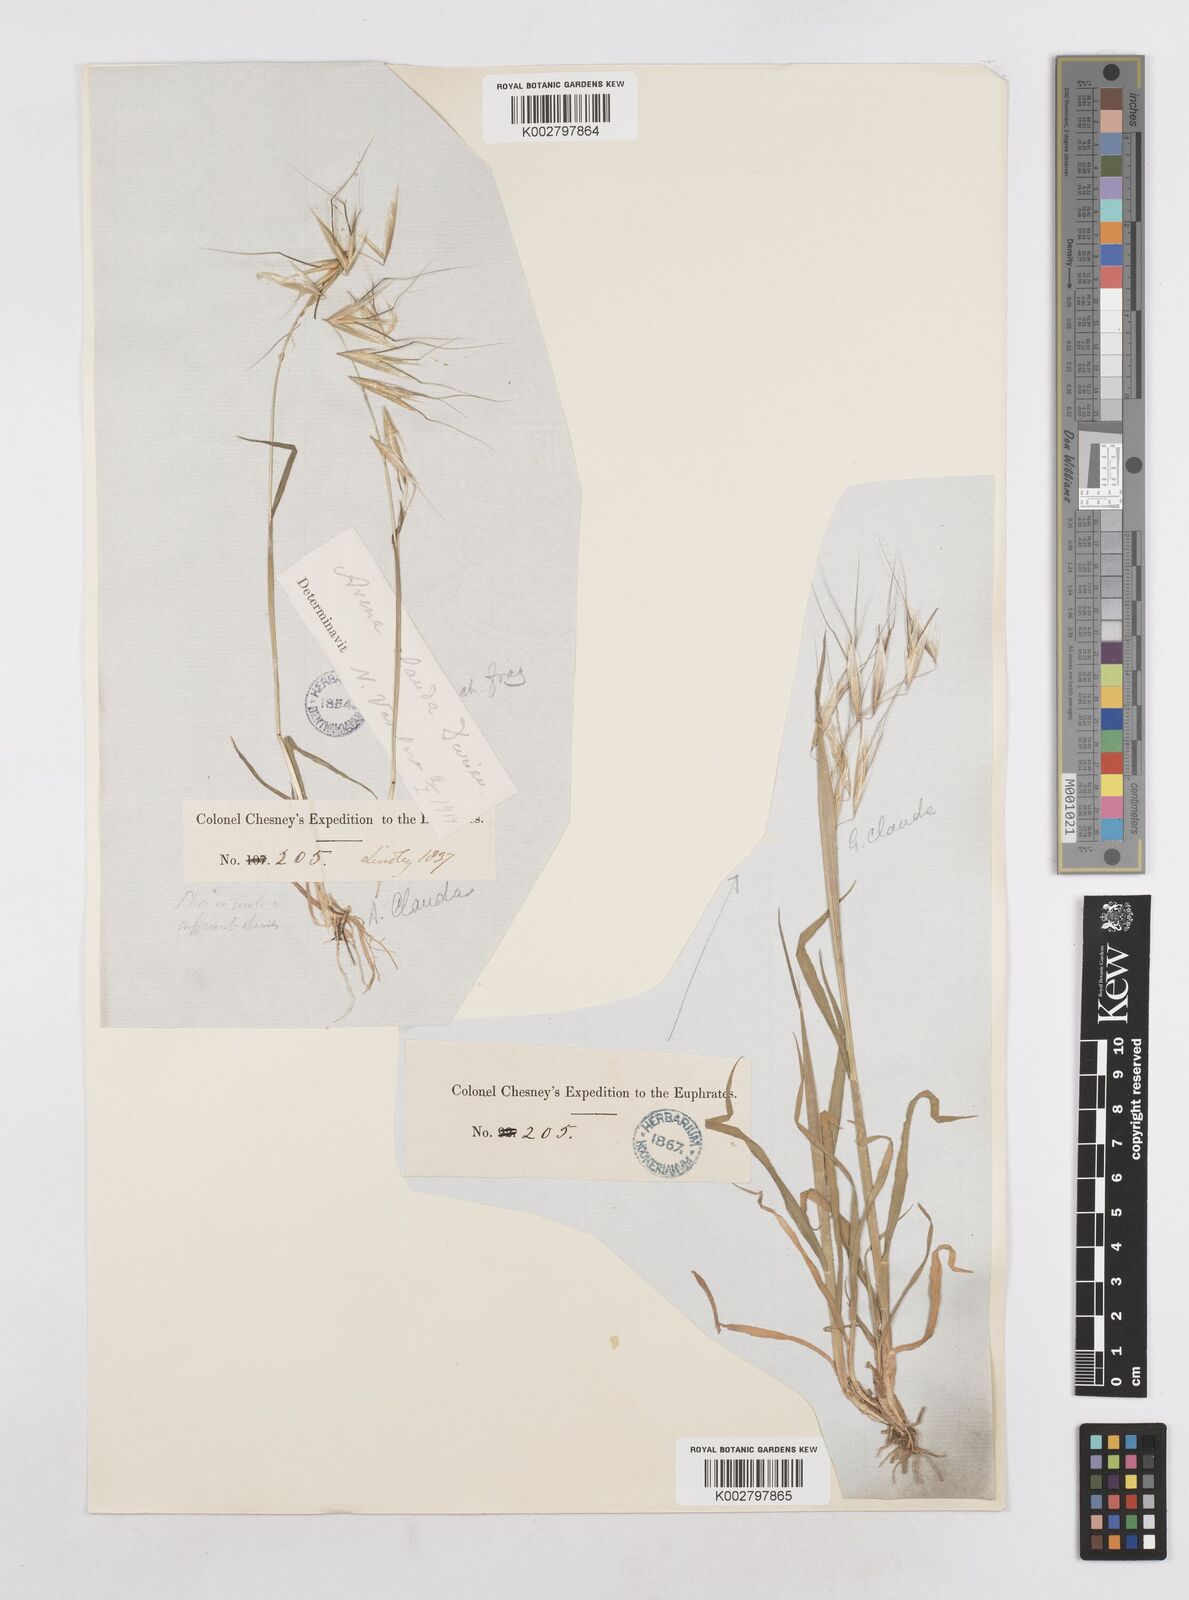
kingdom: Plantae
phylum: Tracheophyta
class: Liliopsida
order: Poales
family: Poaceae
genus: Avena
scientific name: Avena clauda
